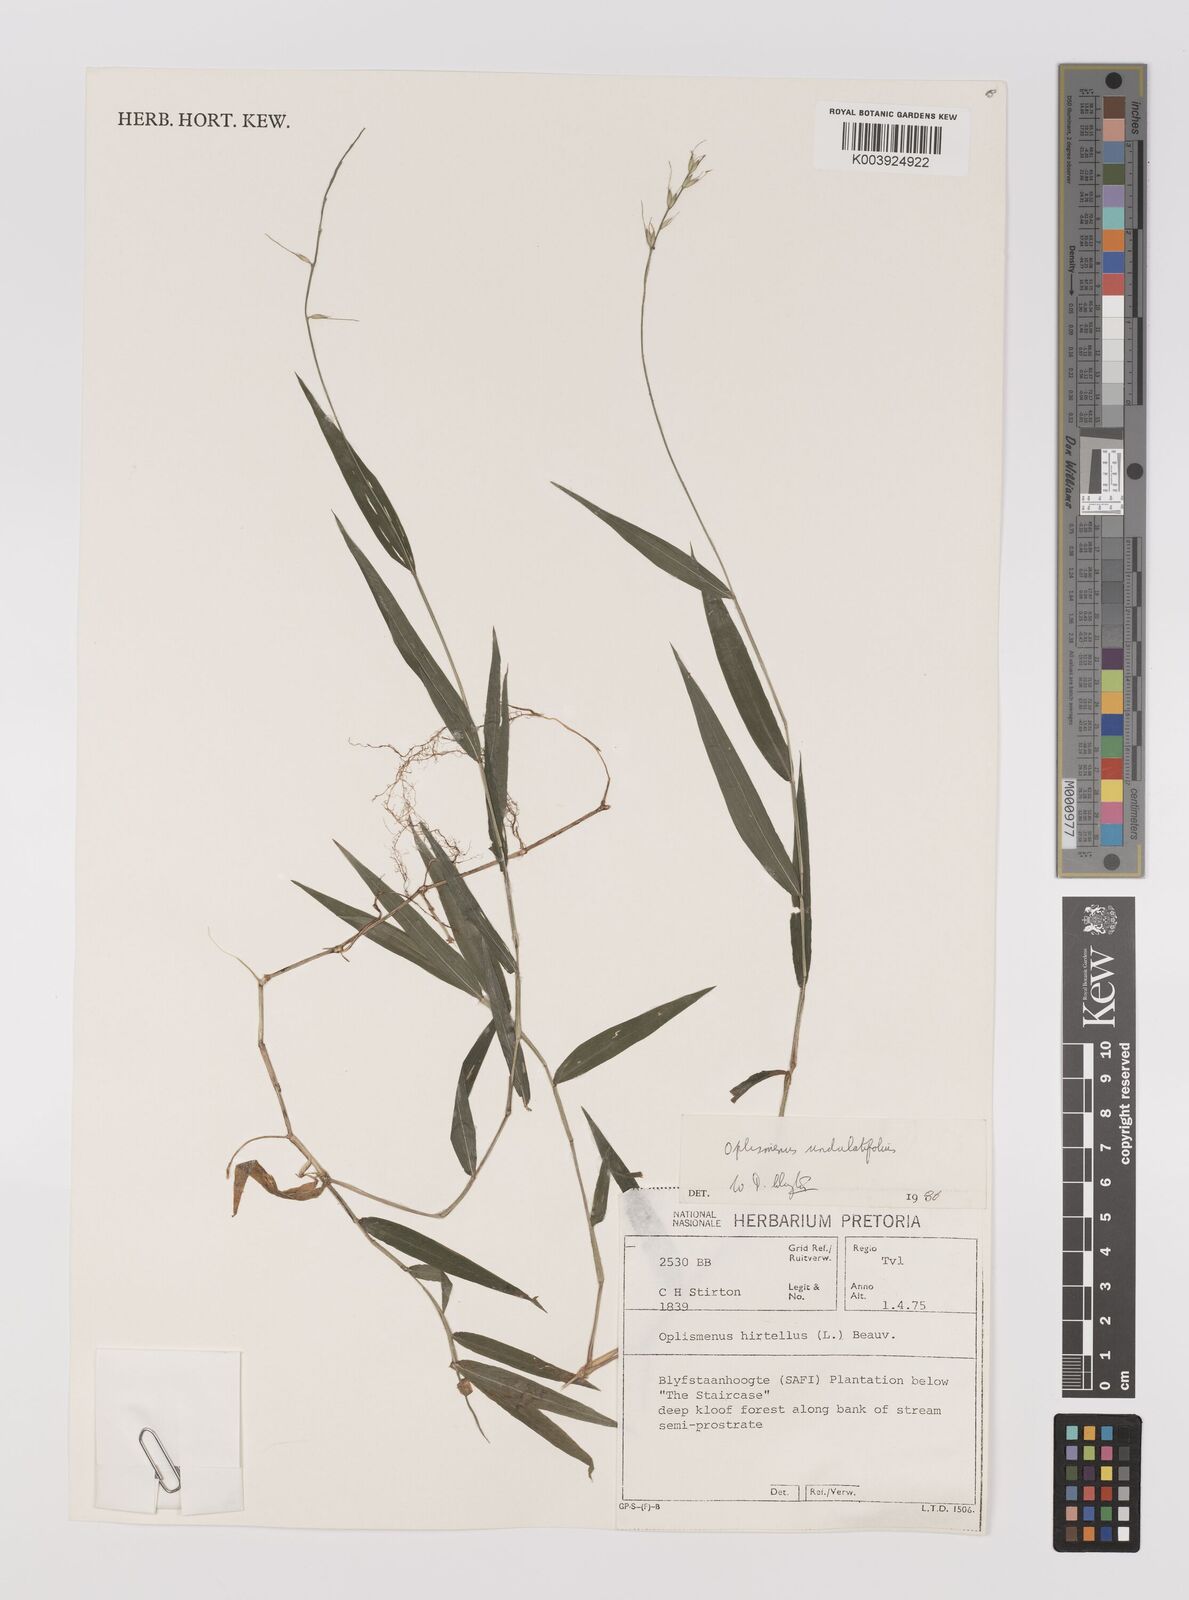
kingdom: Plantae
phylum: Tracheophyta
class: Liliopsida
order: Poales
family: Poaceae
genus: Oplismenus
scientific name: Oplismenus undulatifolius
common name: Wavyleaf basketgrass
